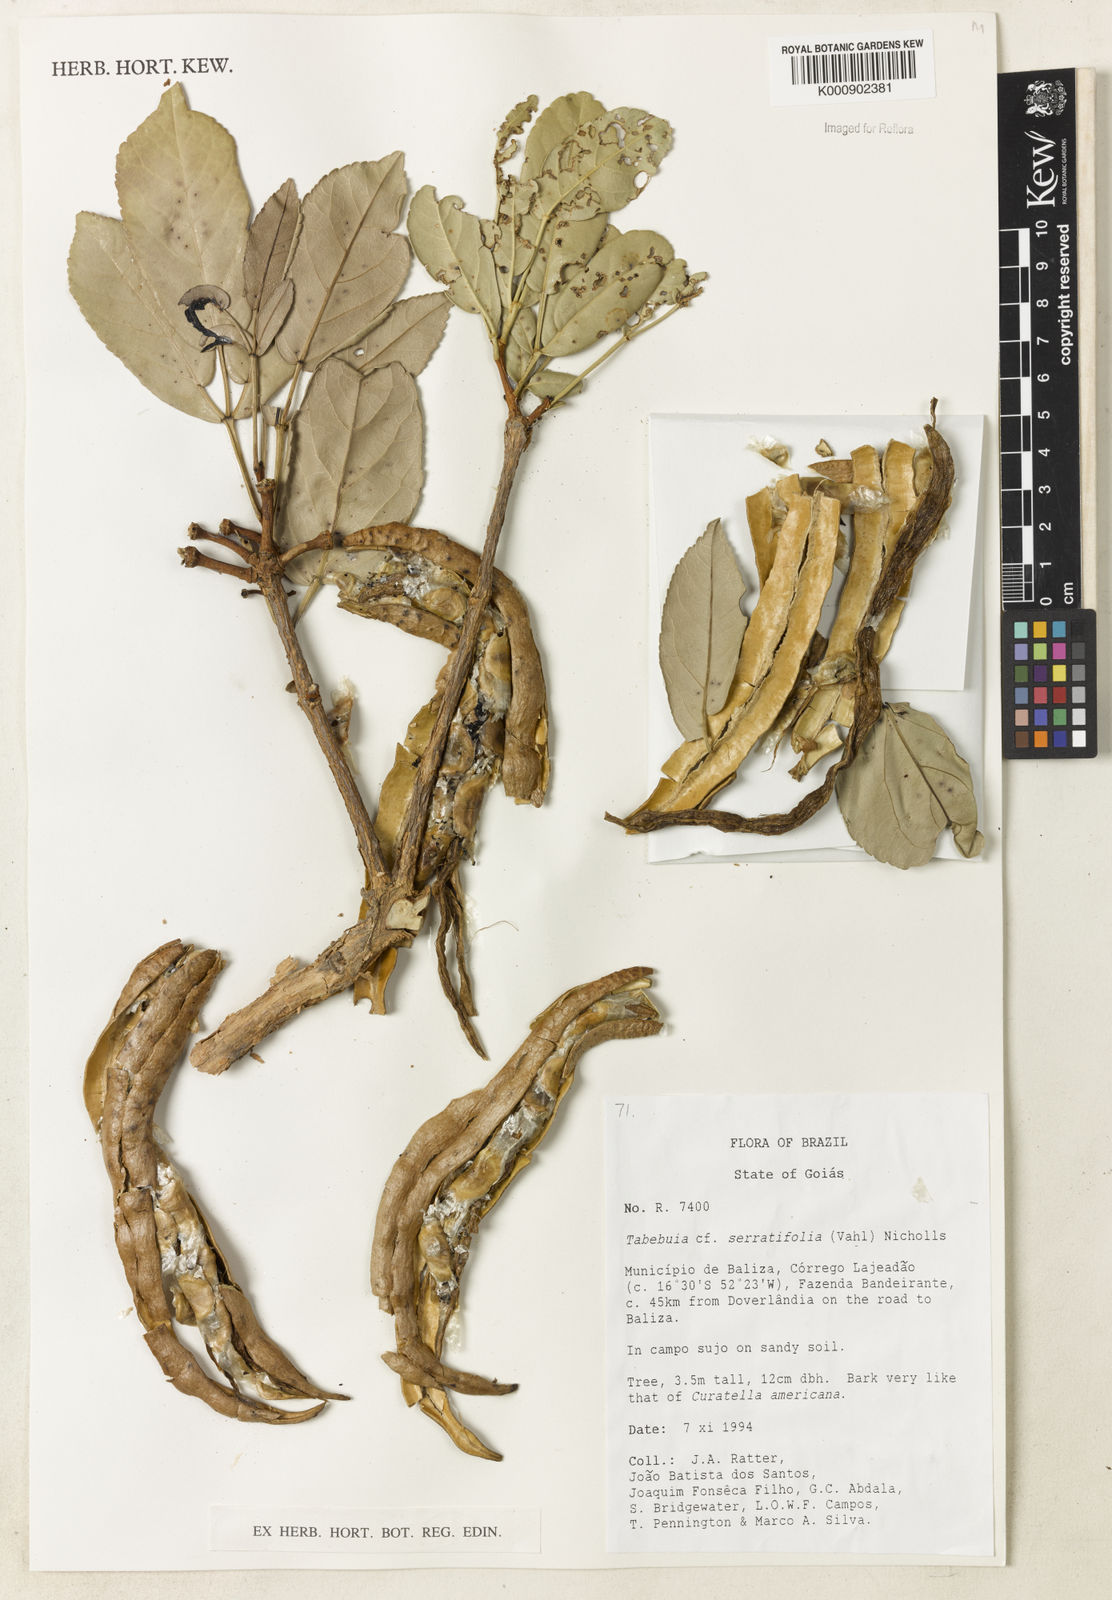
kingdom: Plantae
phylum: Tracheophyta
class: Magnoliopsida
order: Lamiales
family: Bignoniaceae
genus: Handroanthus
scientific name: Handroanthus serratifolius
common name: Yellow ipe
